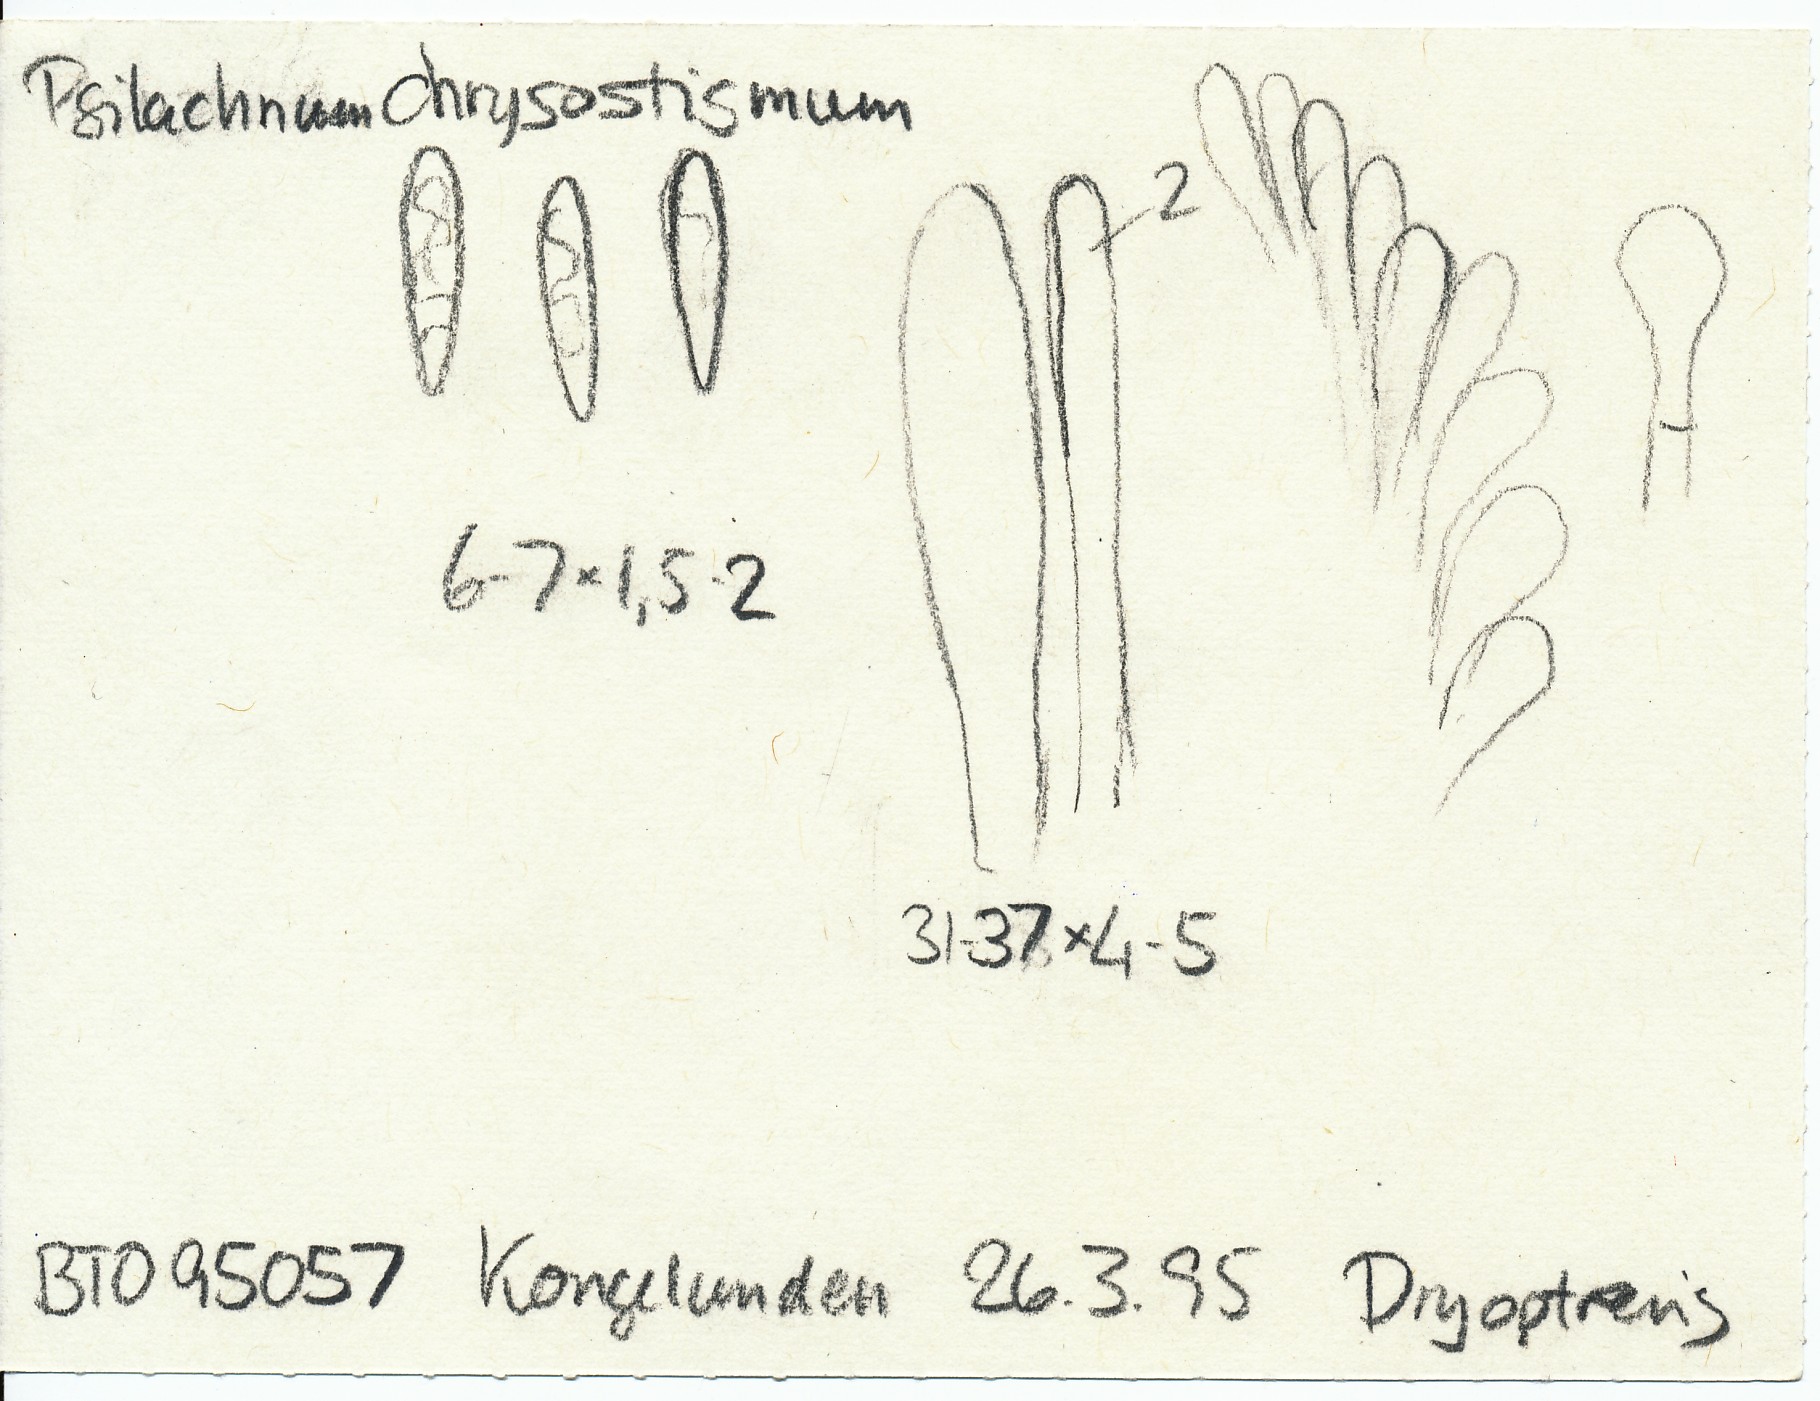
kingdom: Fungi
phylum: Ascomycota
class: Leotiomycetes
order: Helotiales
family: Pezizellaceae
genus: Psilachnum
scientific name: Psilachnum chrysostigmum
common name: gulnende hårskive
